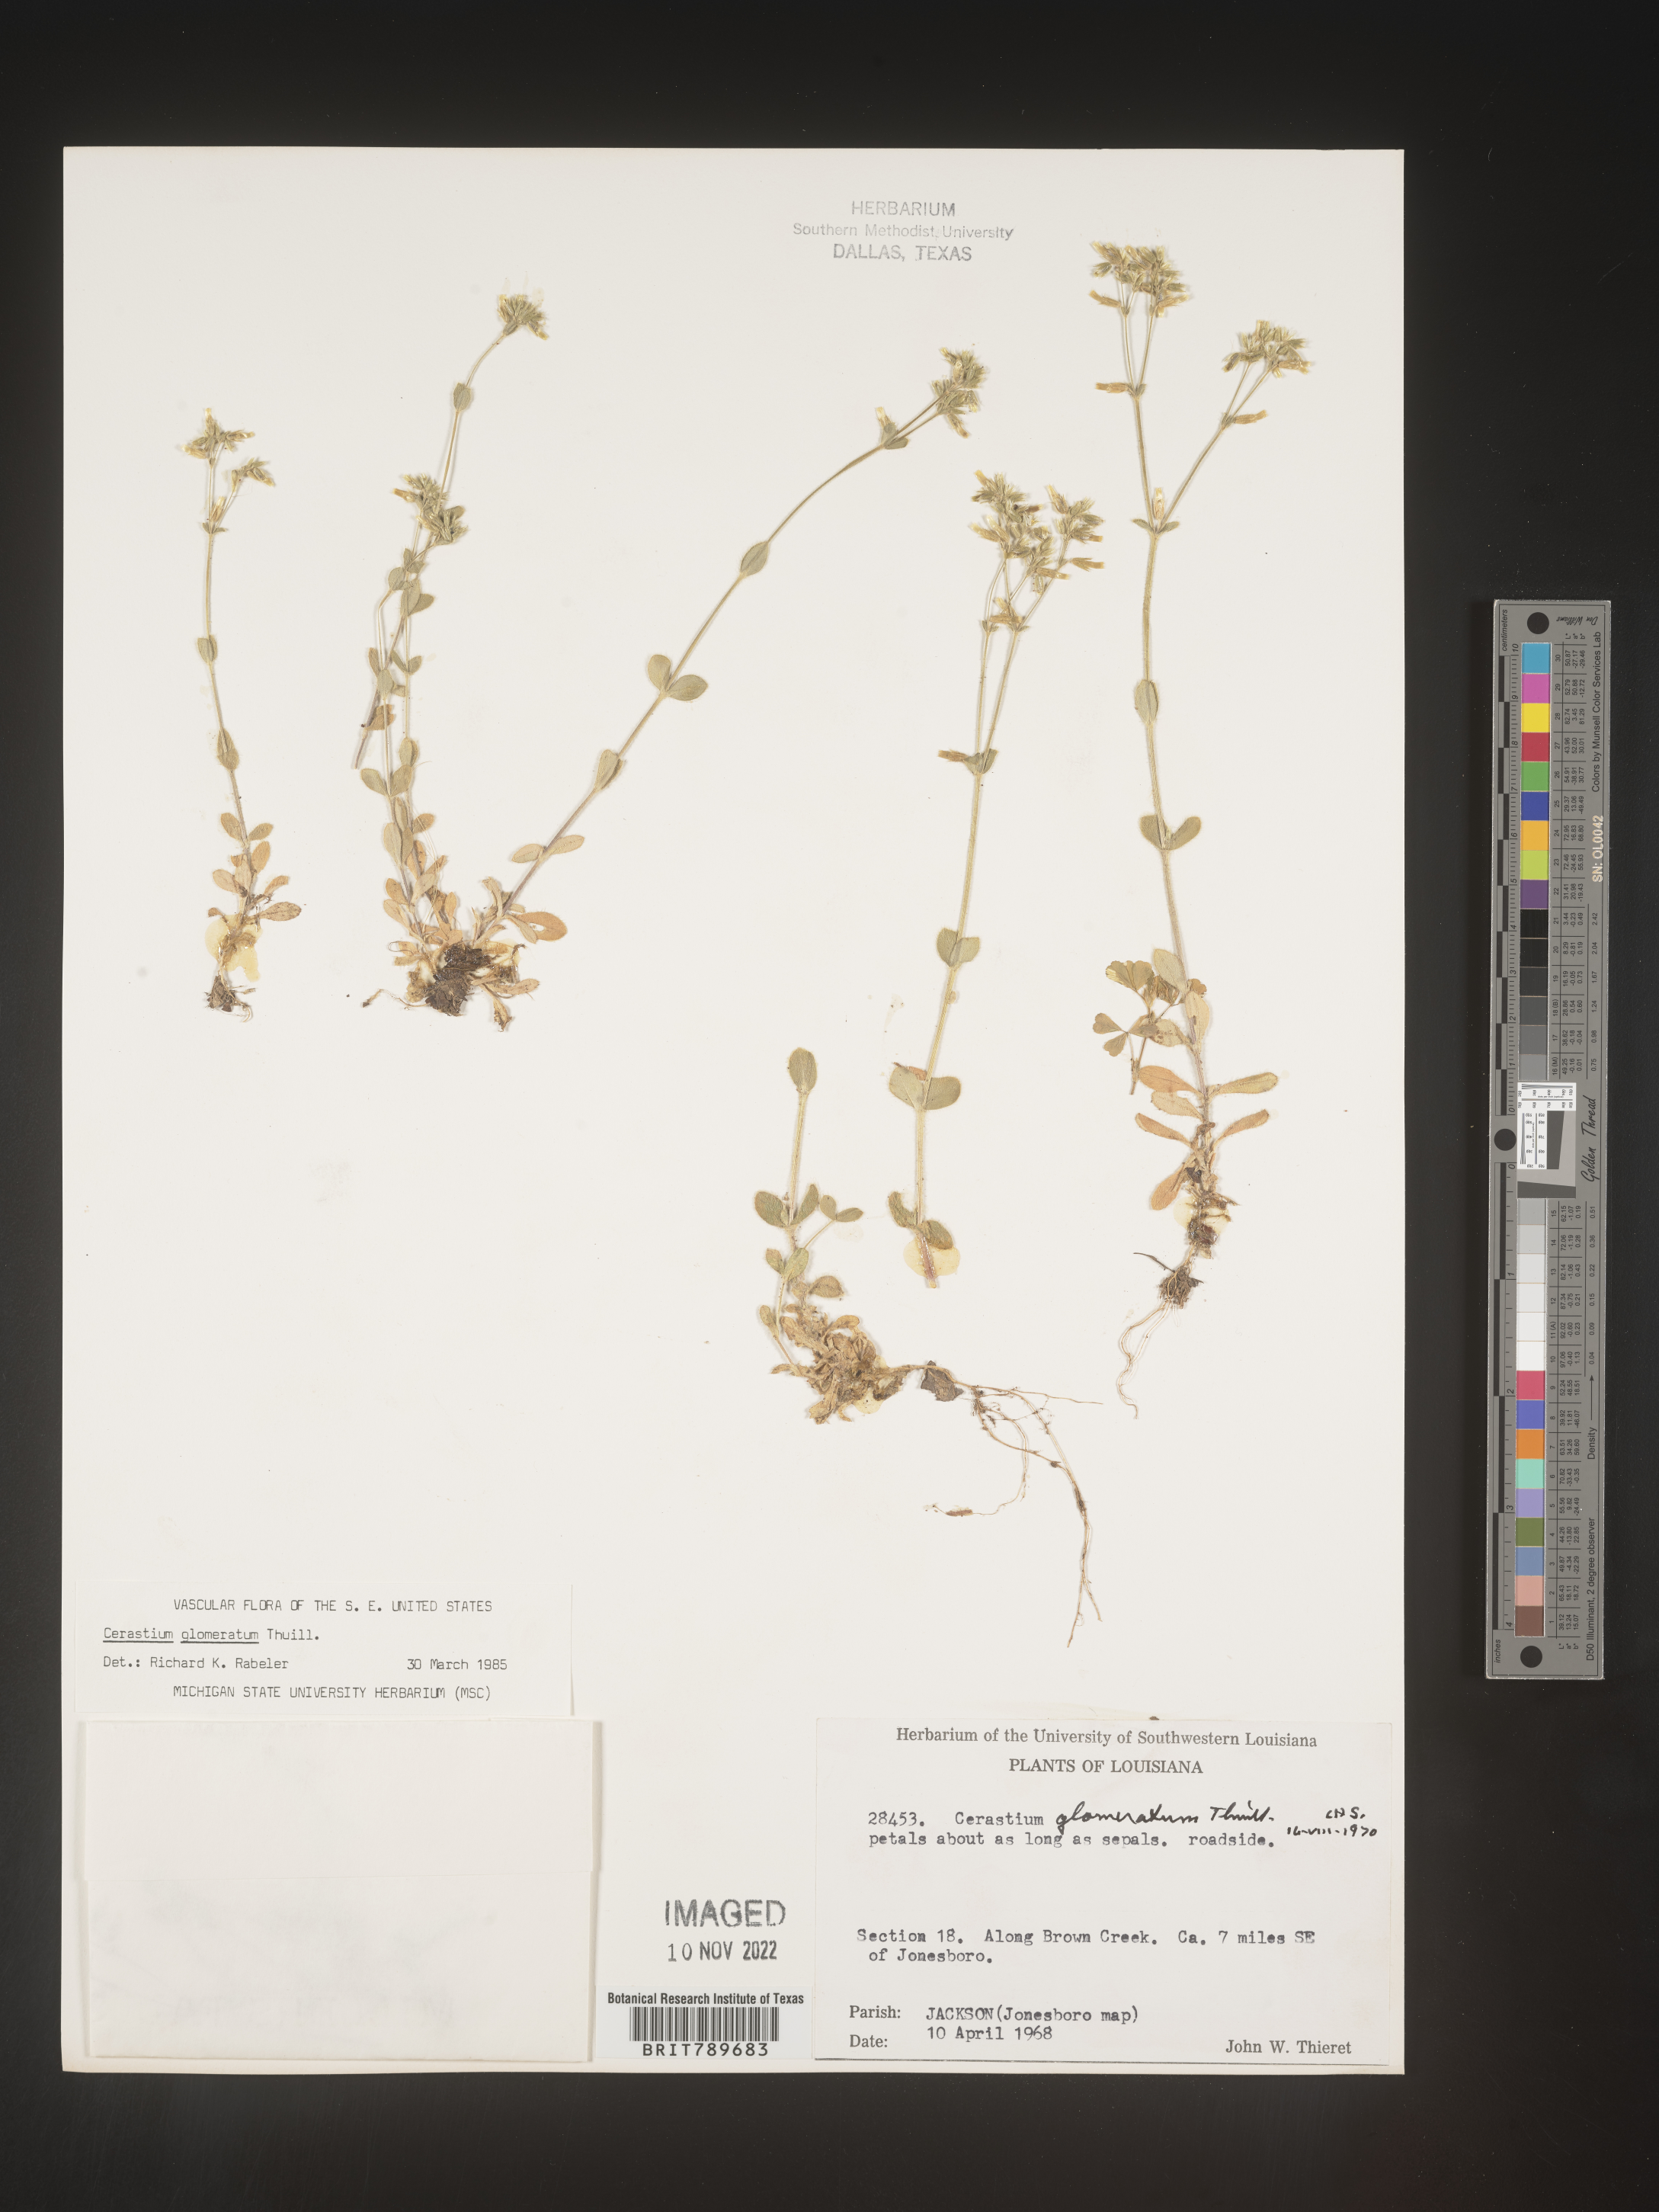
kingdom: Plantae
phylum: Tracheophyta
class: Magnoliopsida
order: Caryophyllales
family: Caryophyllaceae
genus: Cerastium
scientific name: Cerastium glomeratum
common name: Sticky chickweed
